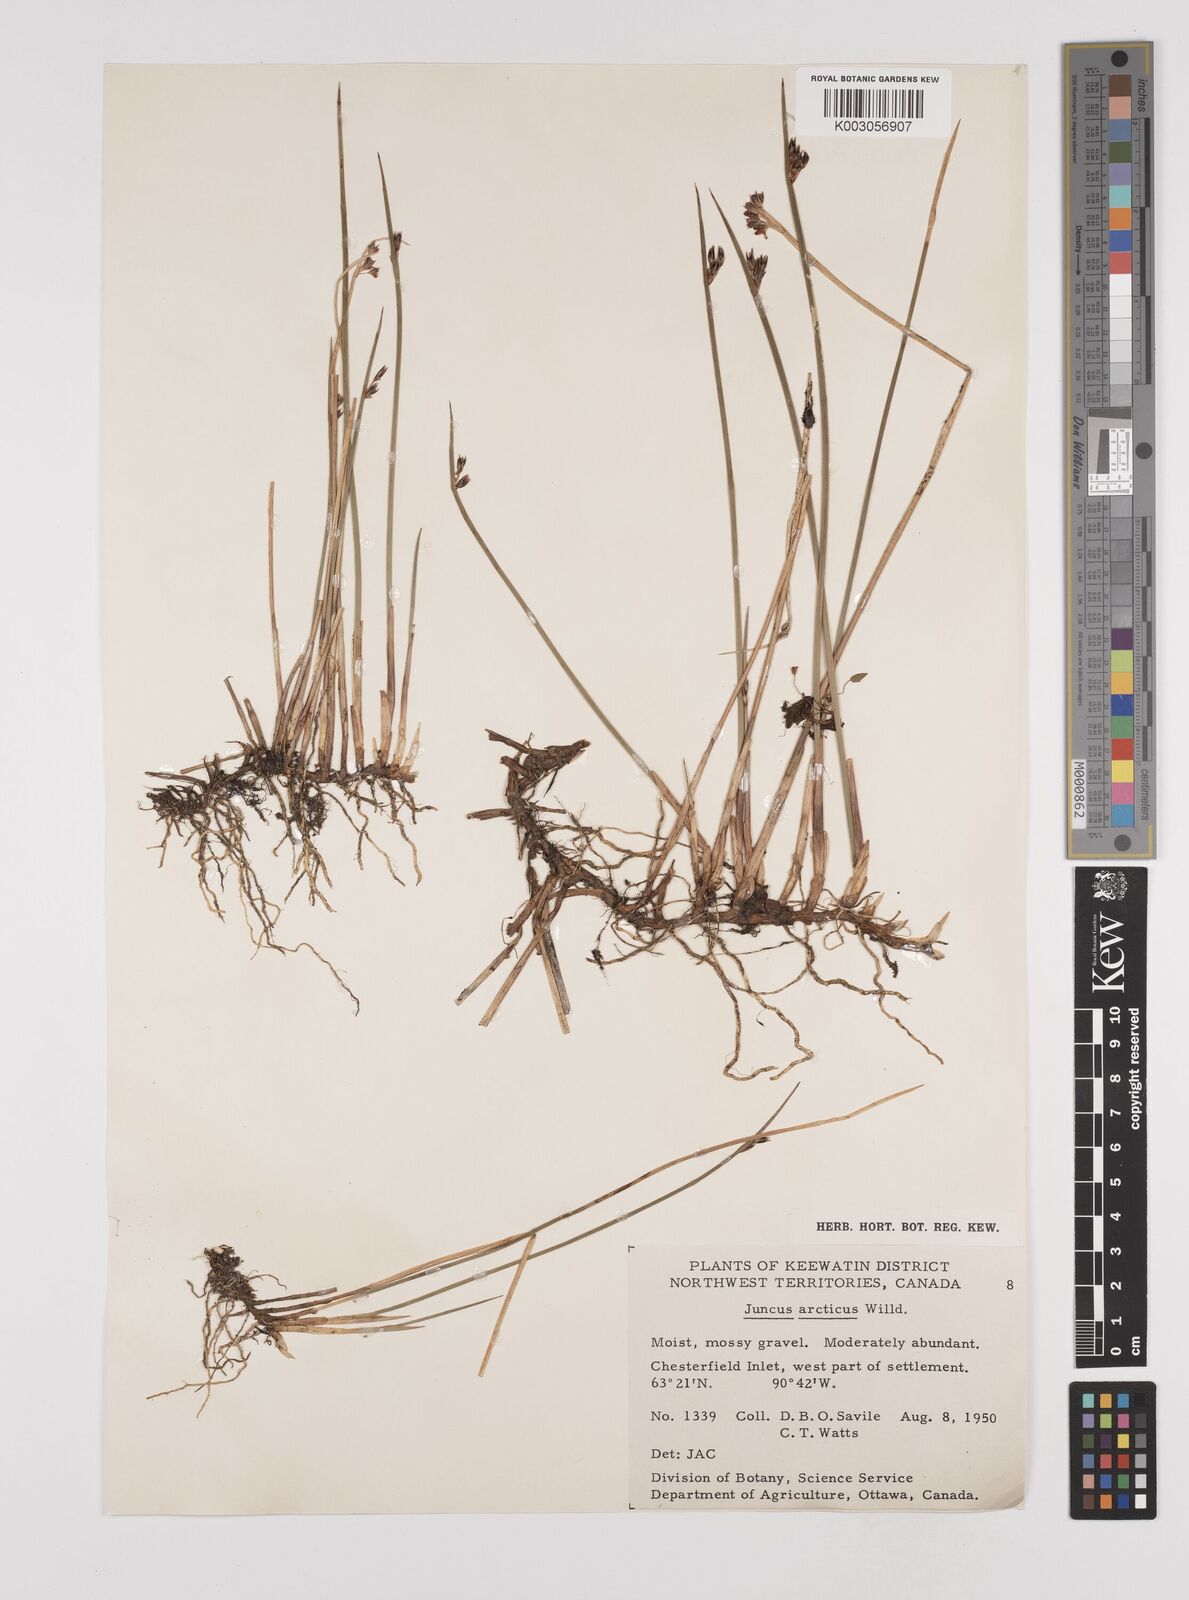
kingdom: Plantae
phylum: Tracheophyta
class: Liliopsida
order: Poales
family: Juncaceae
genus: Juncus
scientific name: Juncus arcticus
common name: Arctic rush
